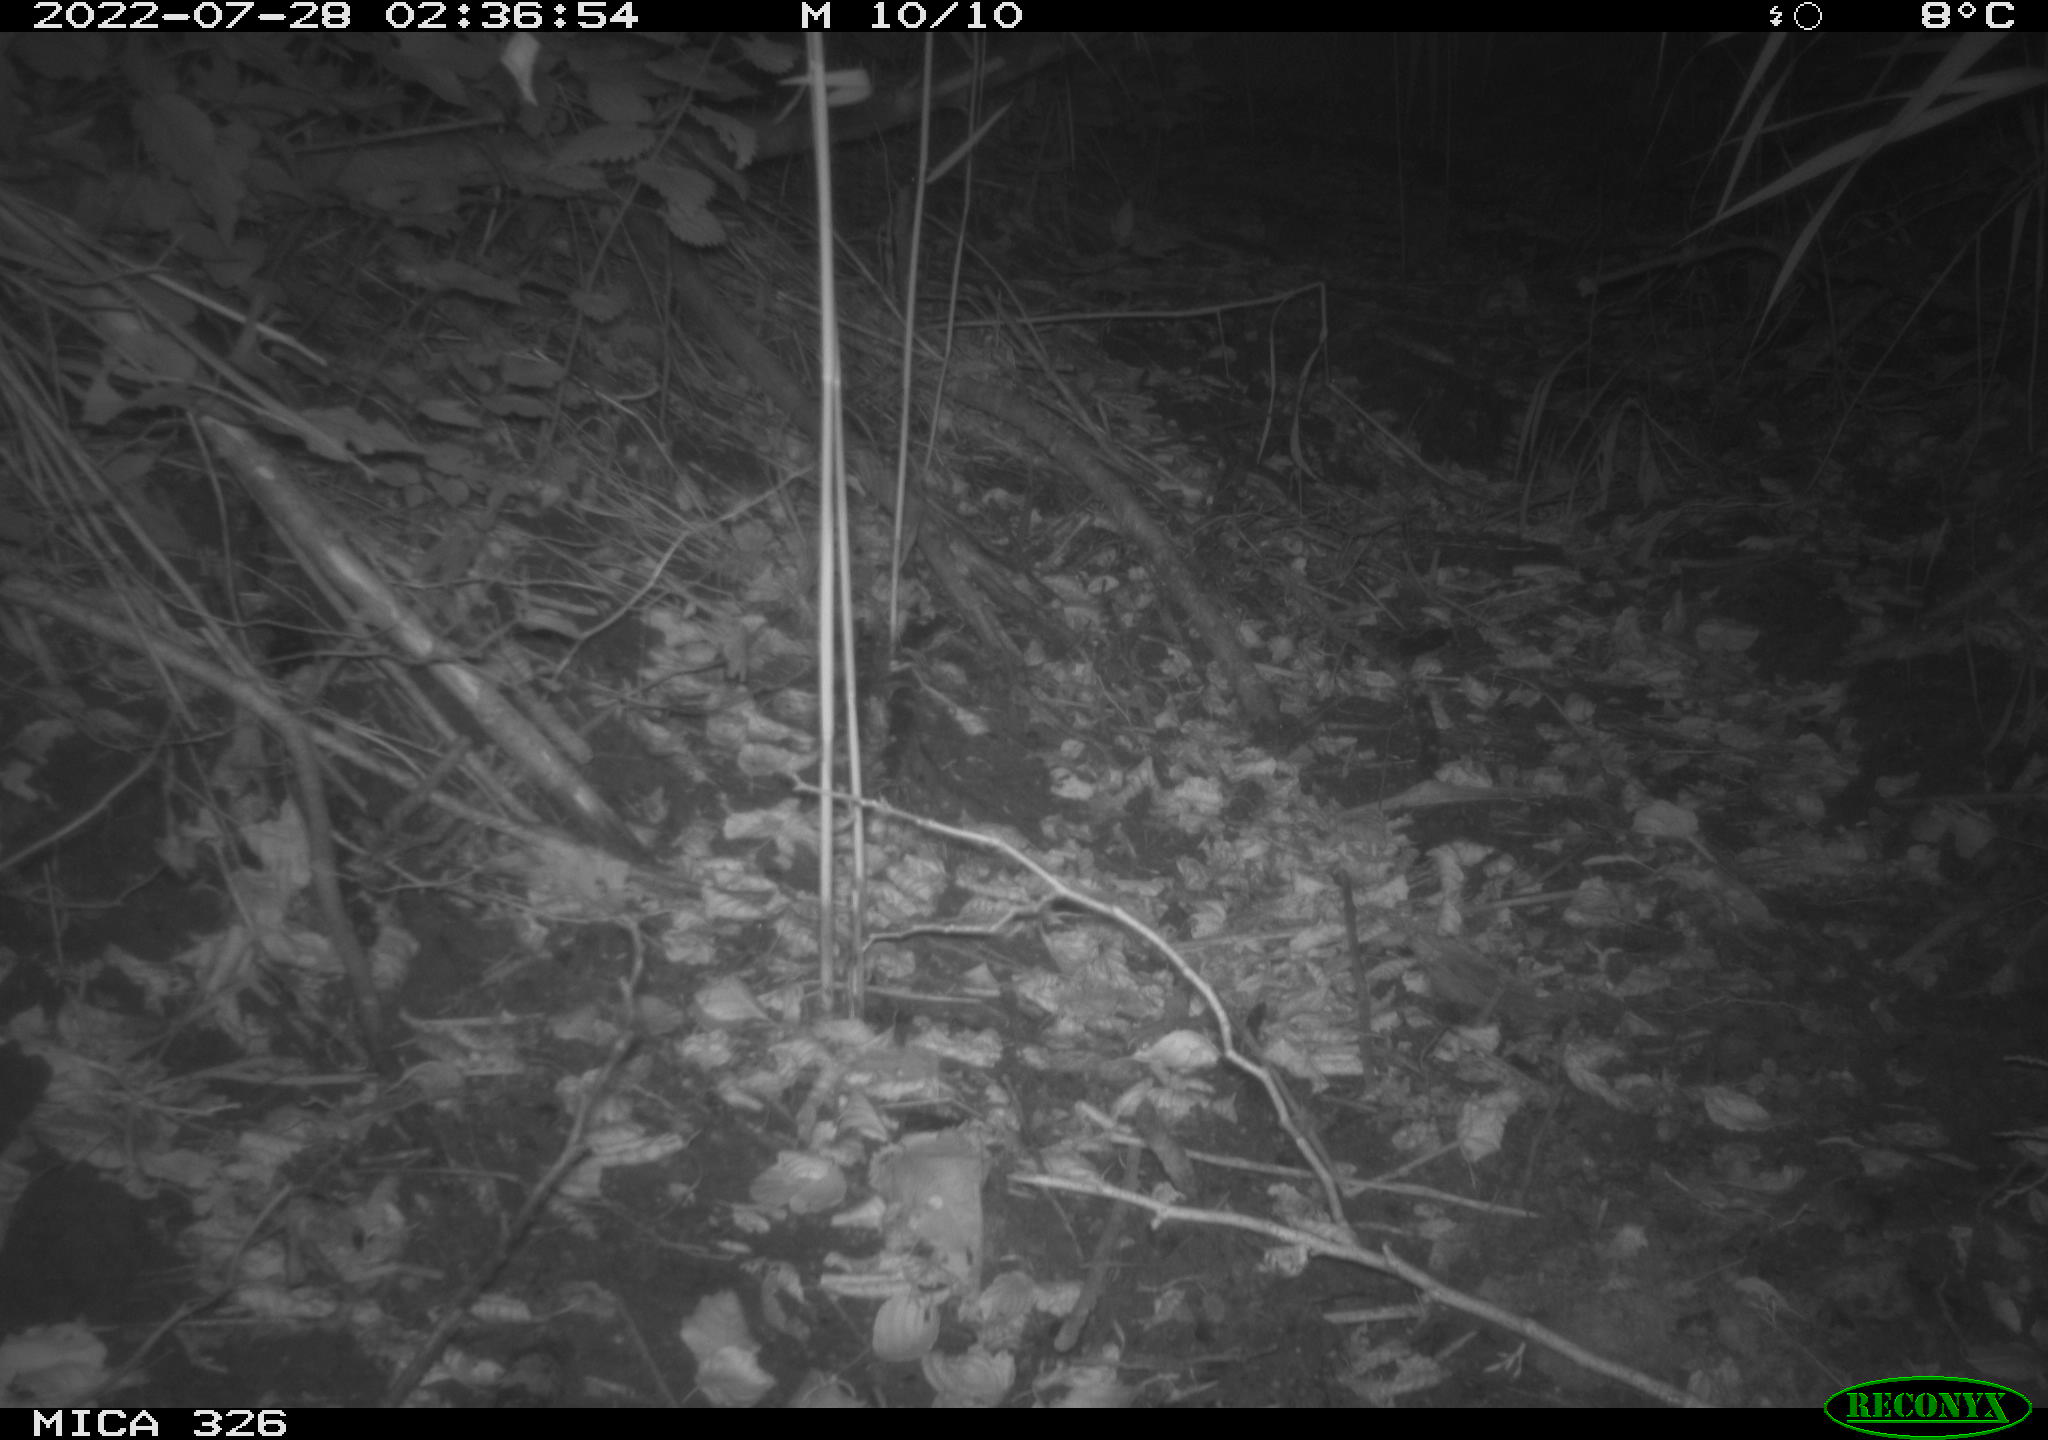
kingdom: Animalia
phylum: Chordata
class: Mammalia
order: Rodentia
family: Muridae
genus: Rattus
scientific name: Rattus norvegicus
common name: Brown rat
